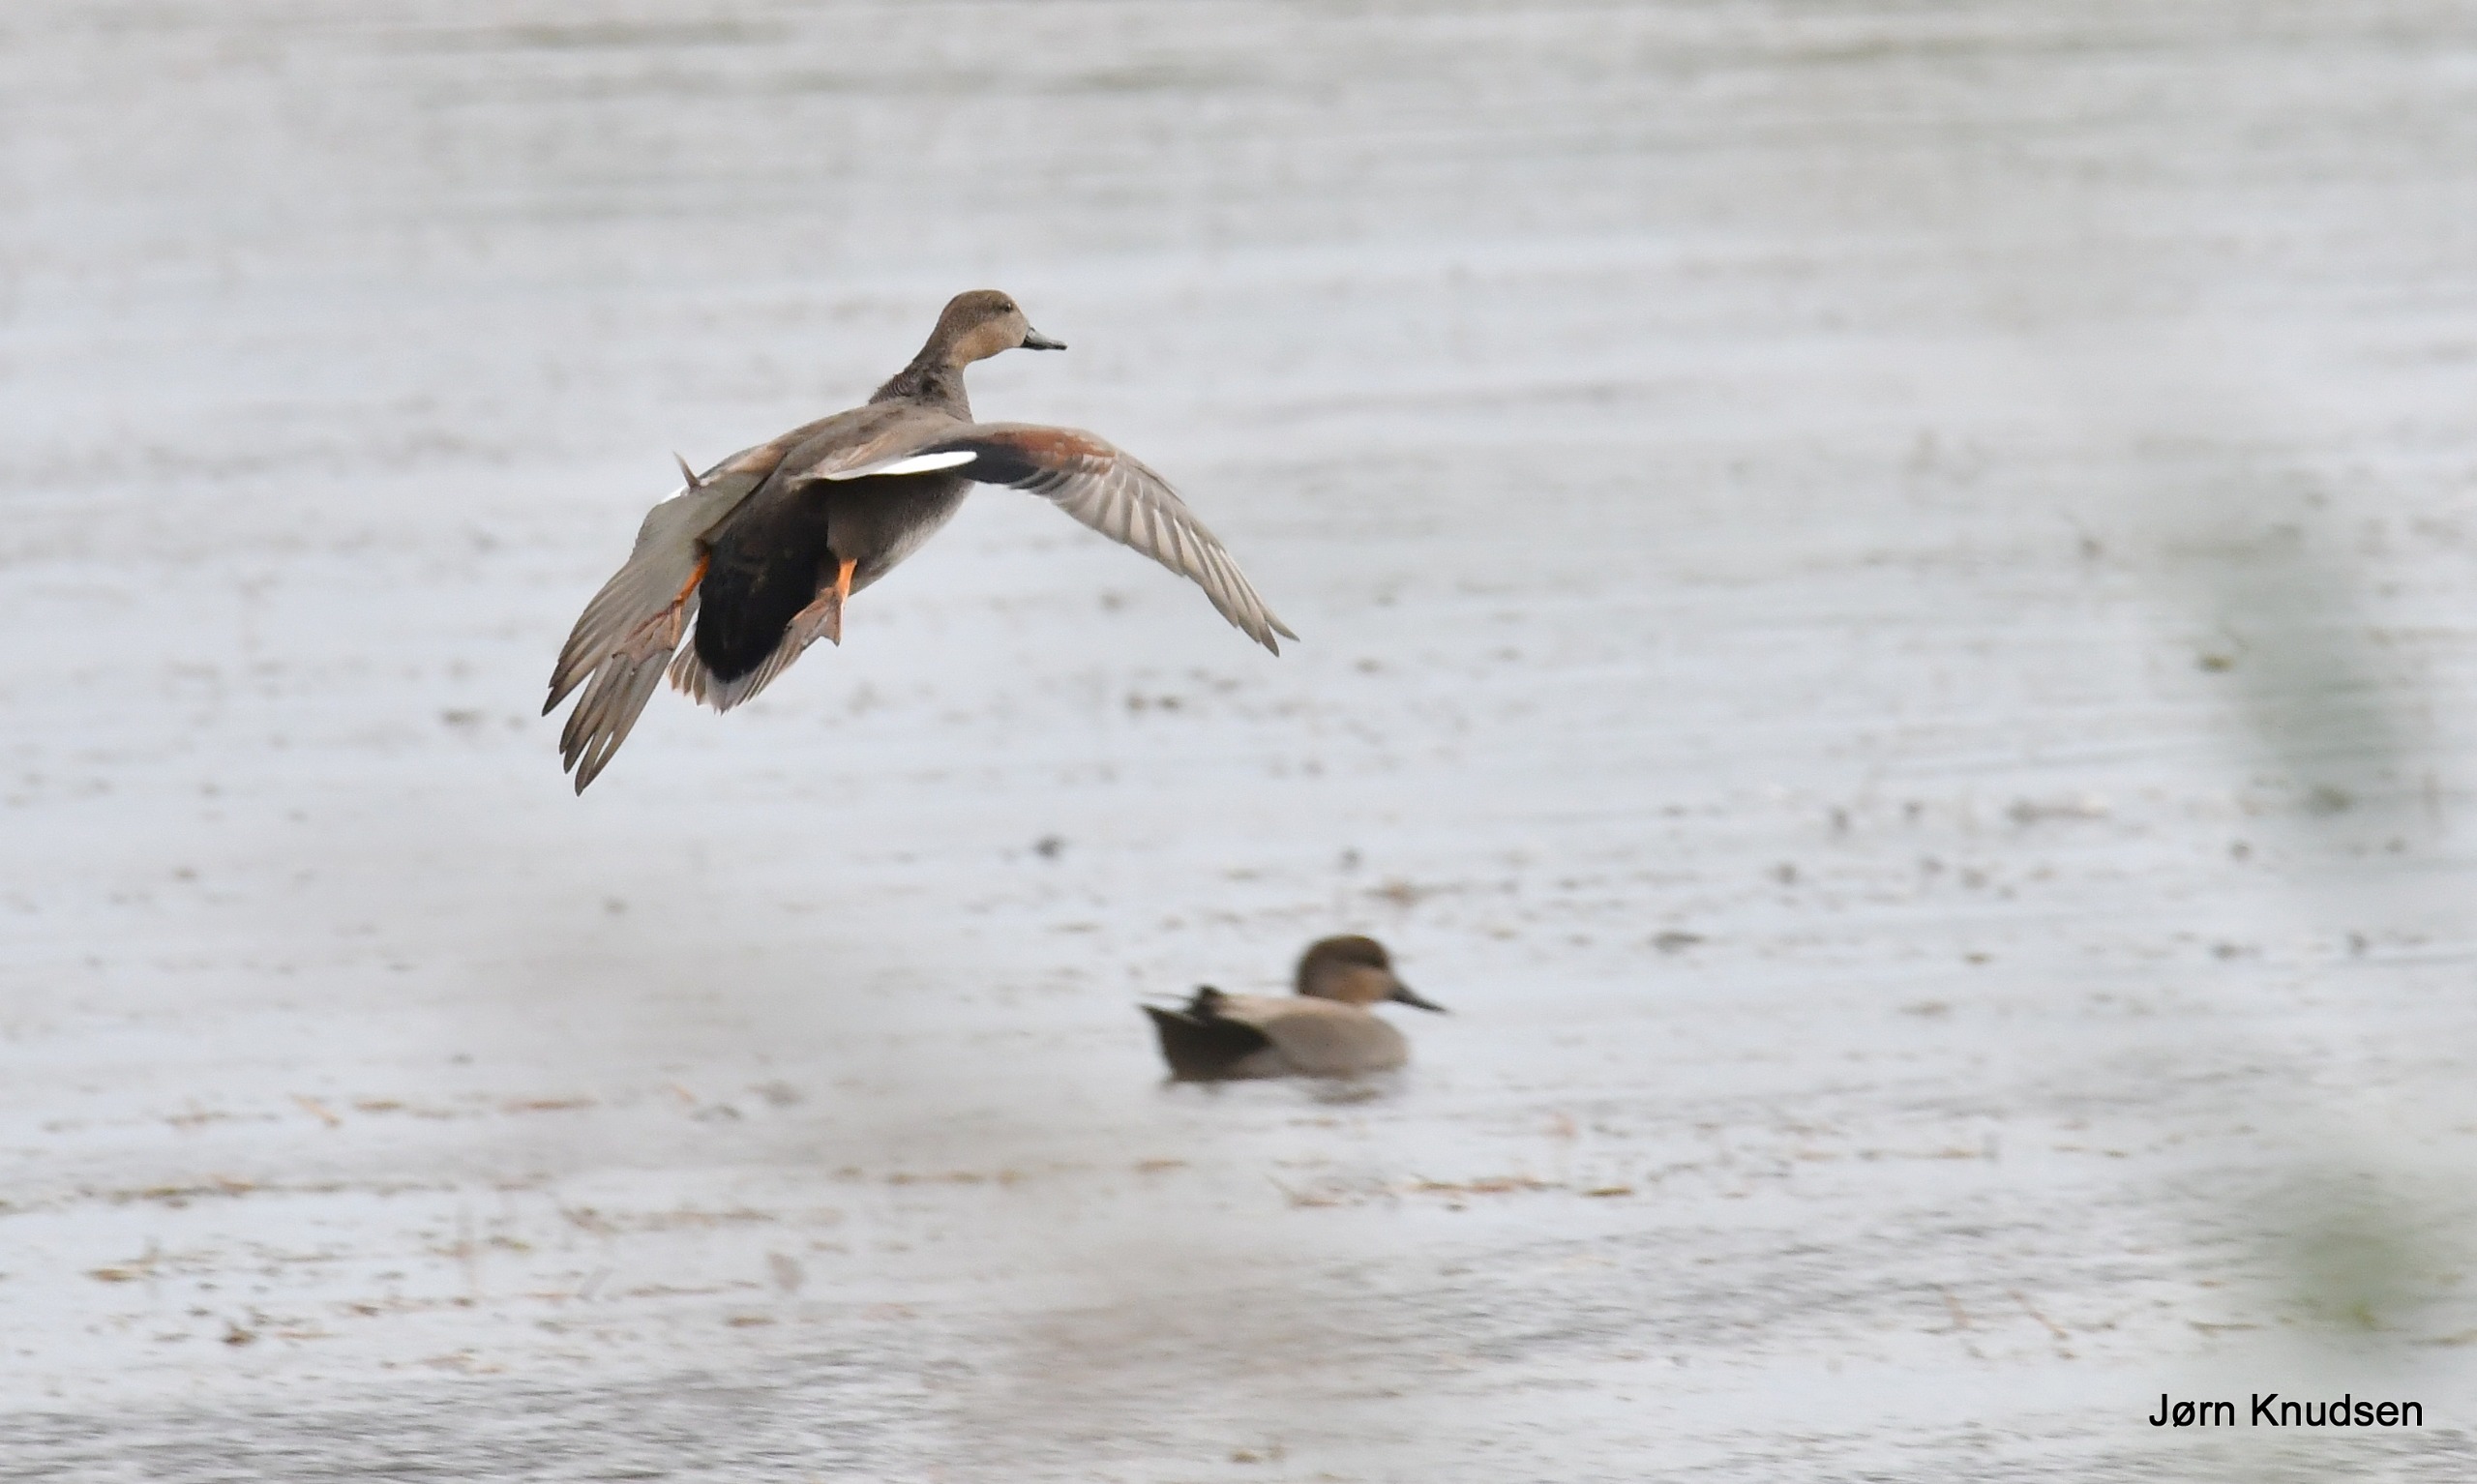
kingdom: Animalia
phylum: Chordata
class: Aves
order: Anseriformes
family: Anatidae
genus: Mareca
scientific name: Mareca strepera
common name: Knarand
